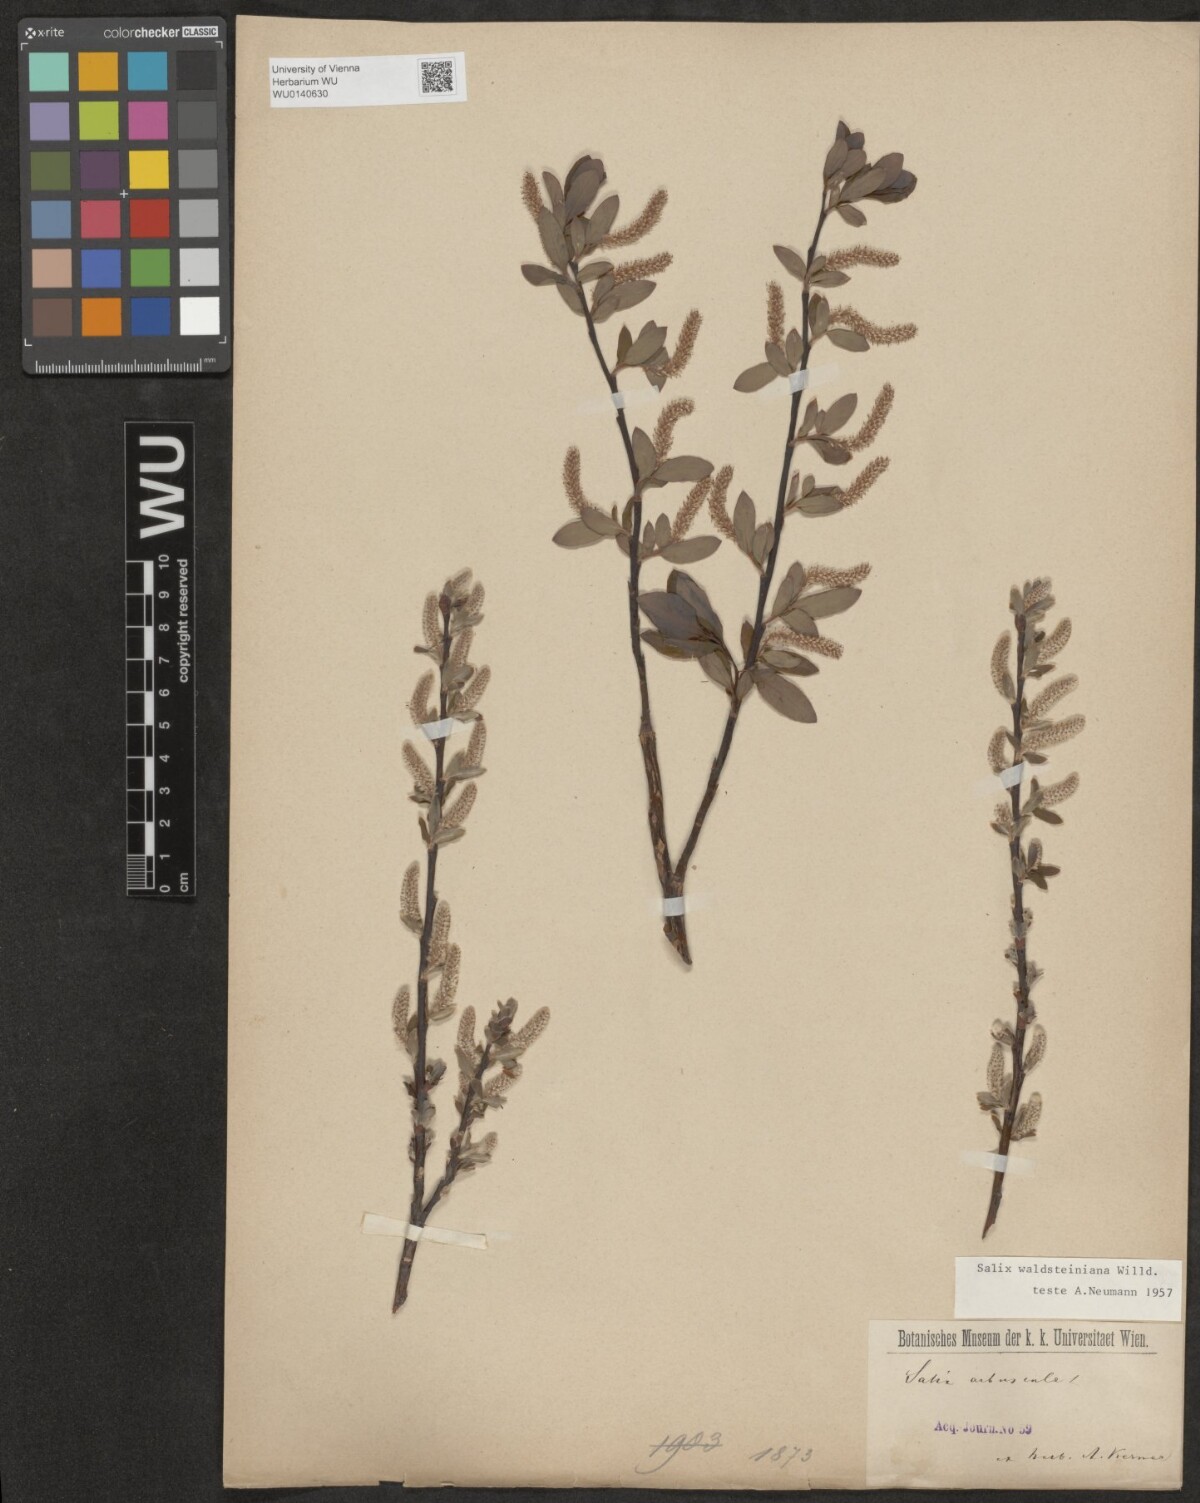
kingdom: Plantae
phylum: Tracheophyta
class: Magnoliopsida
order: Malpighiales
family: Salicaceae
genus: Salix
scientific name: Salix waldsteiniana
